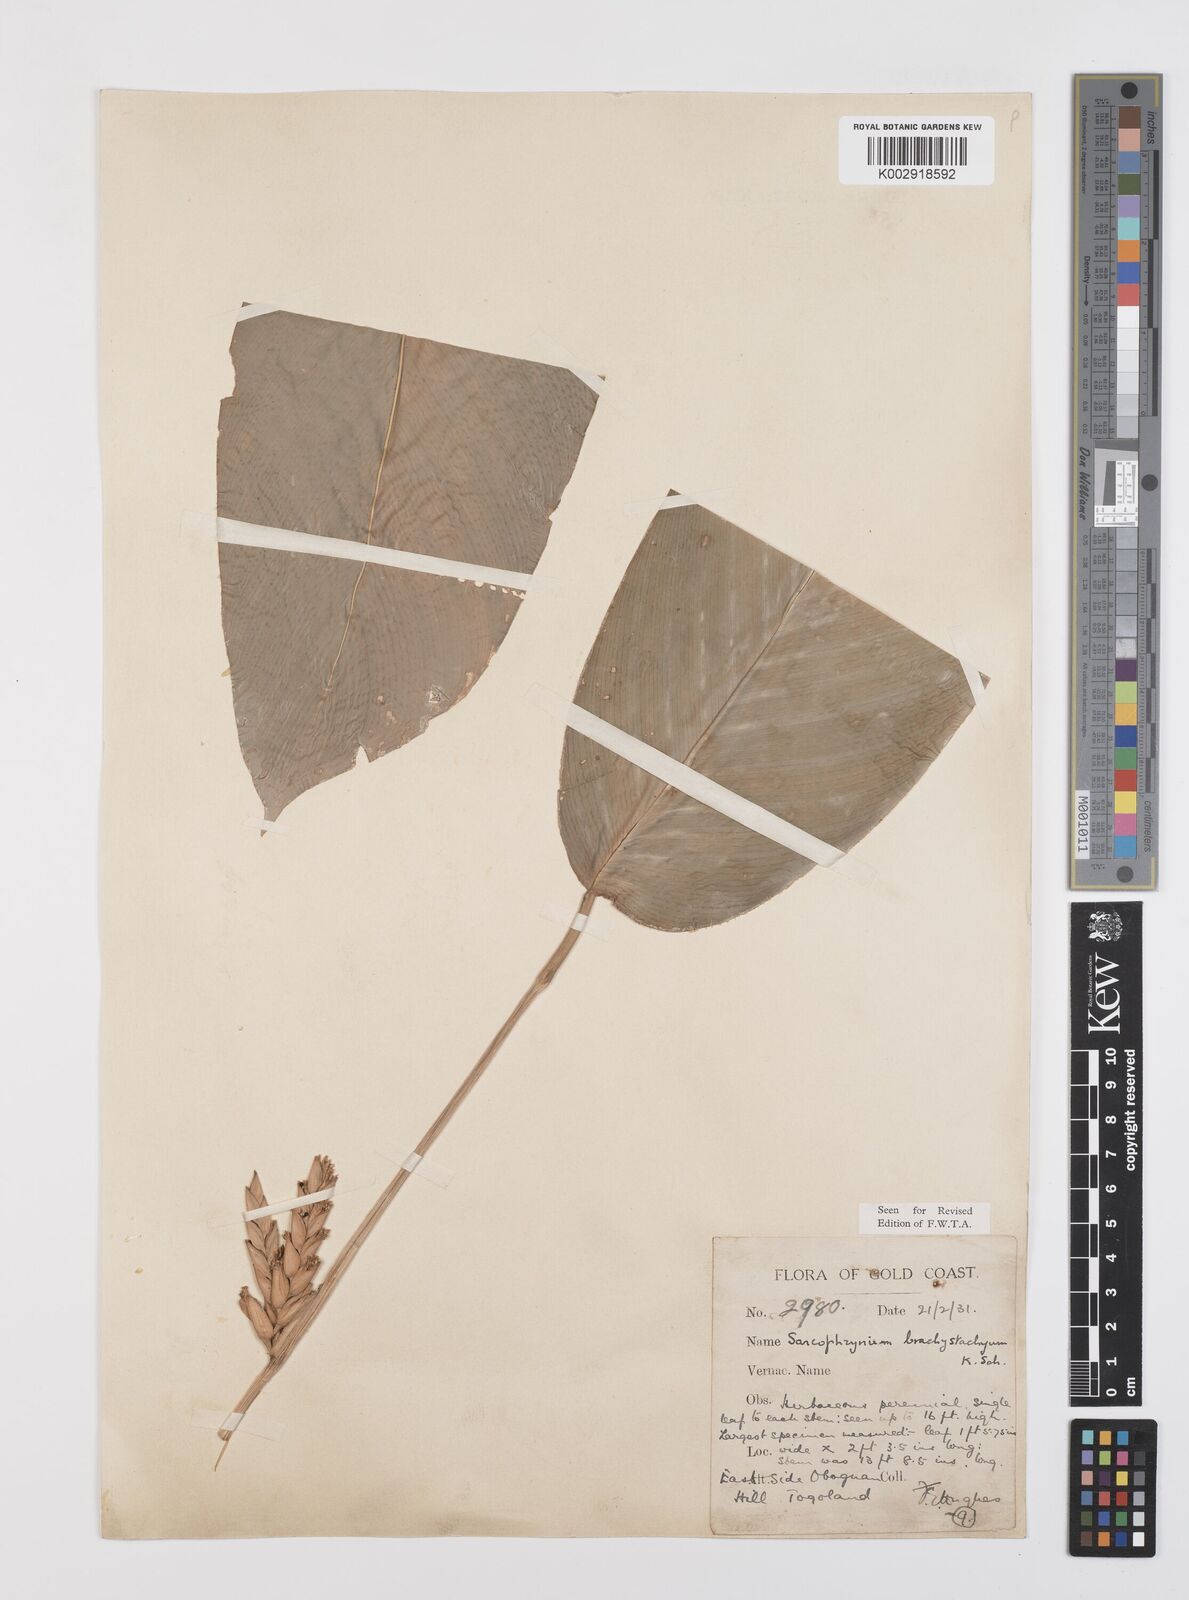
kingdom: Plantae
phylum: Tracheophyta
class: Liliopsida
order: Zingiberales
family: Marantaceae
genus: Sarcophrynium
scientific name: Sarcophrynium brachystachyum
